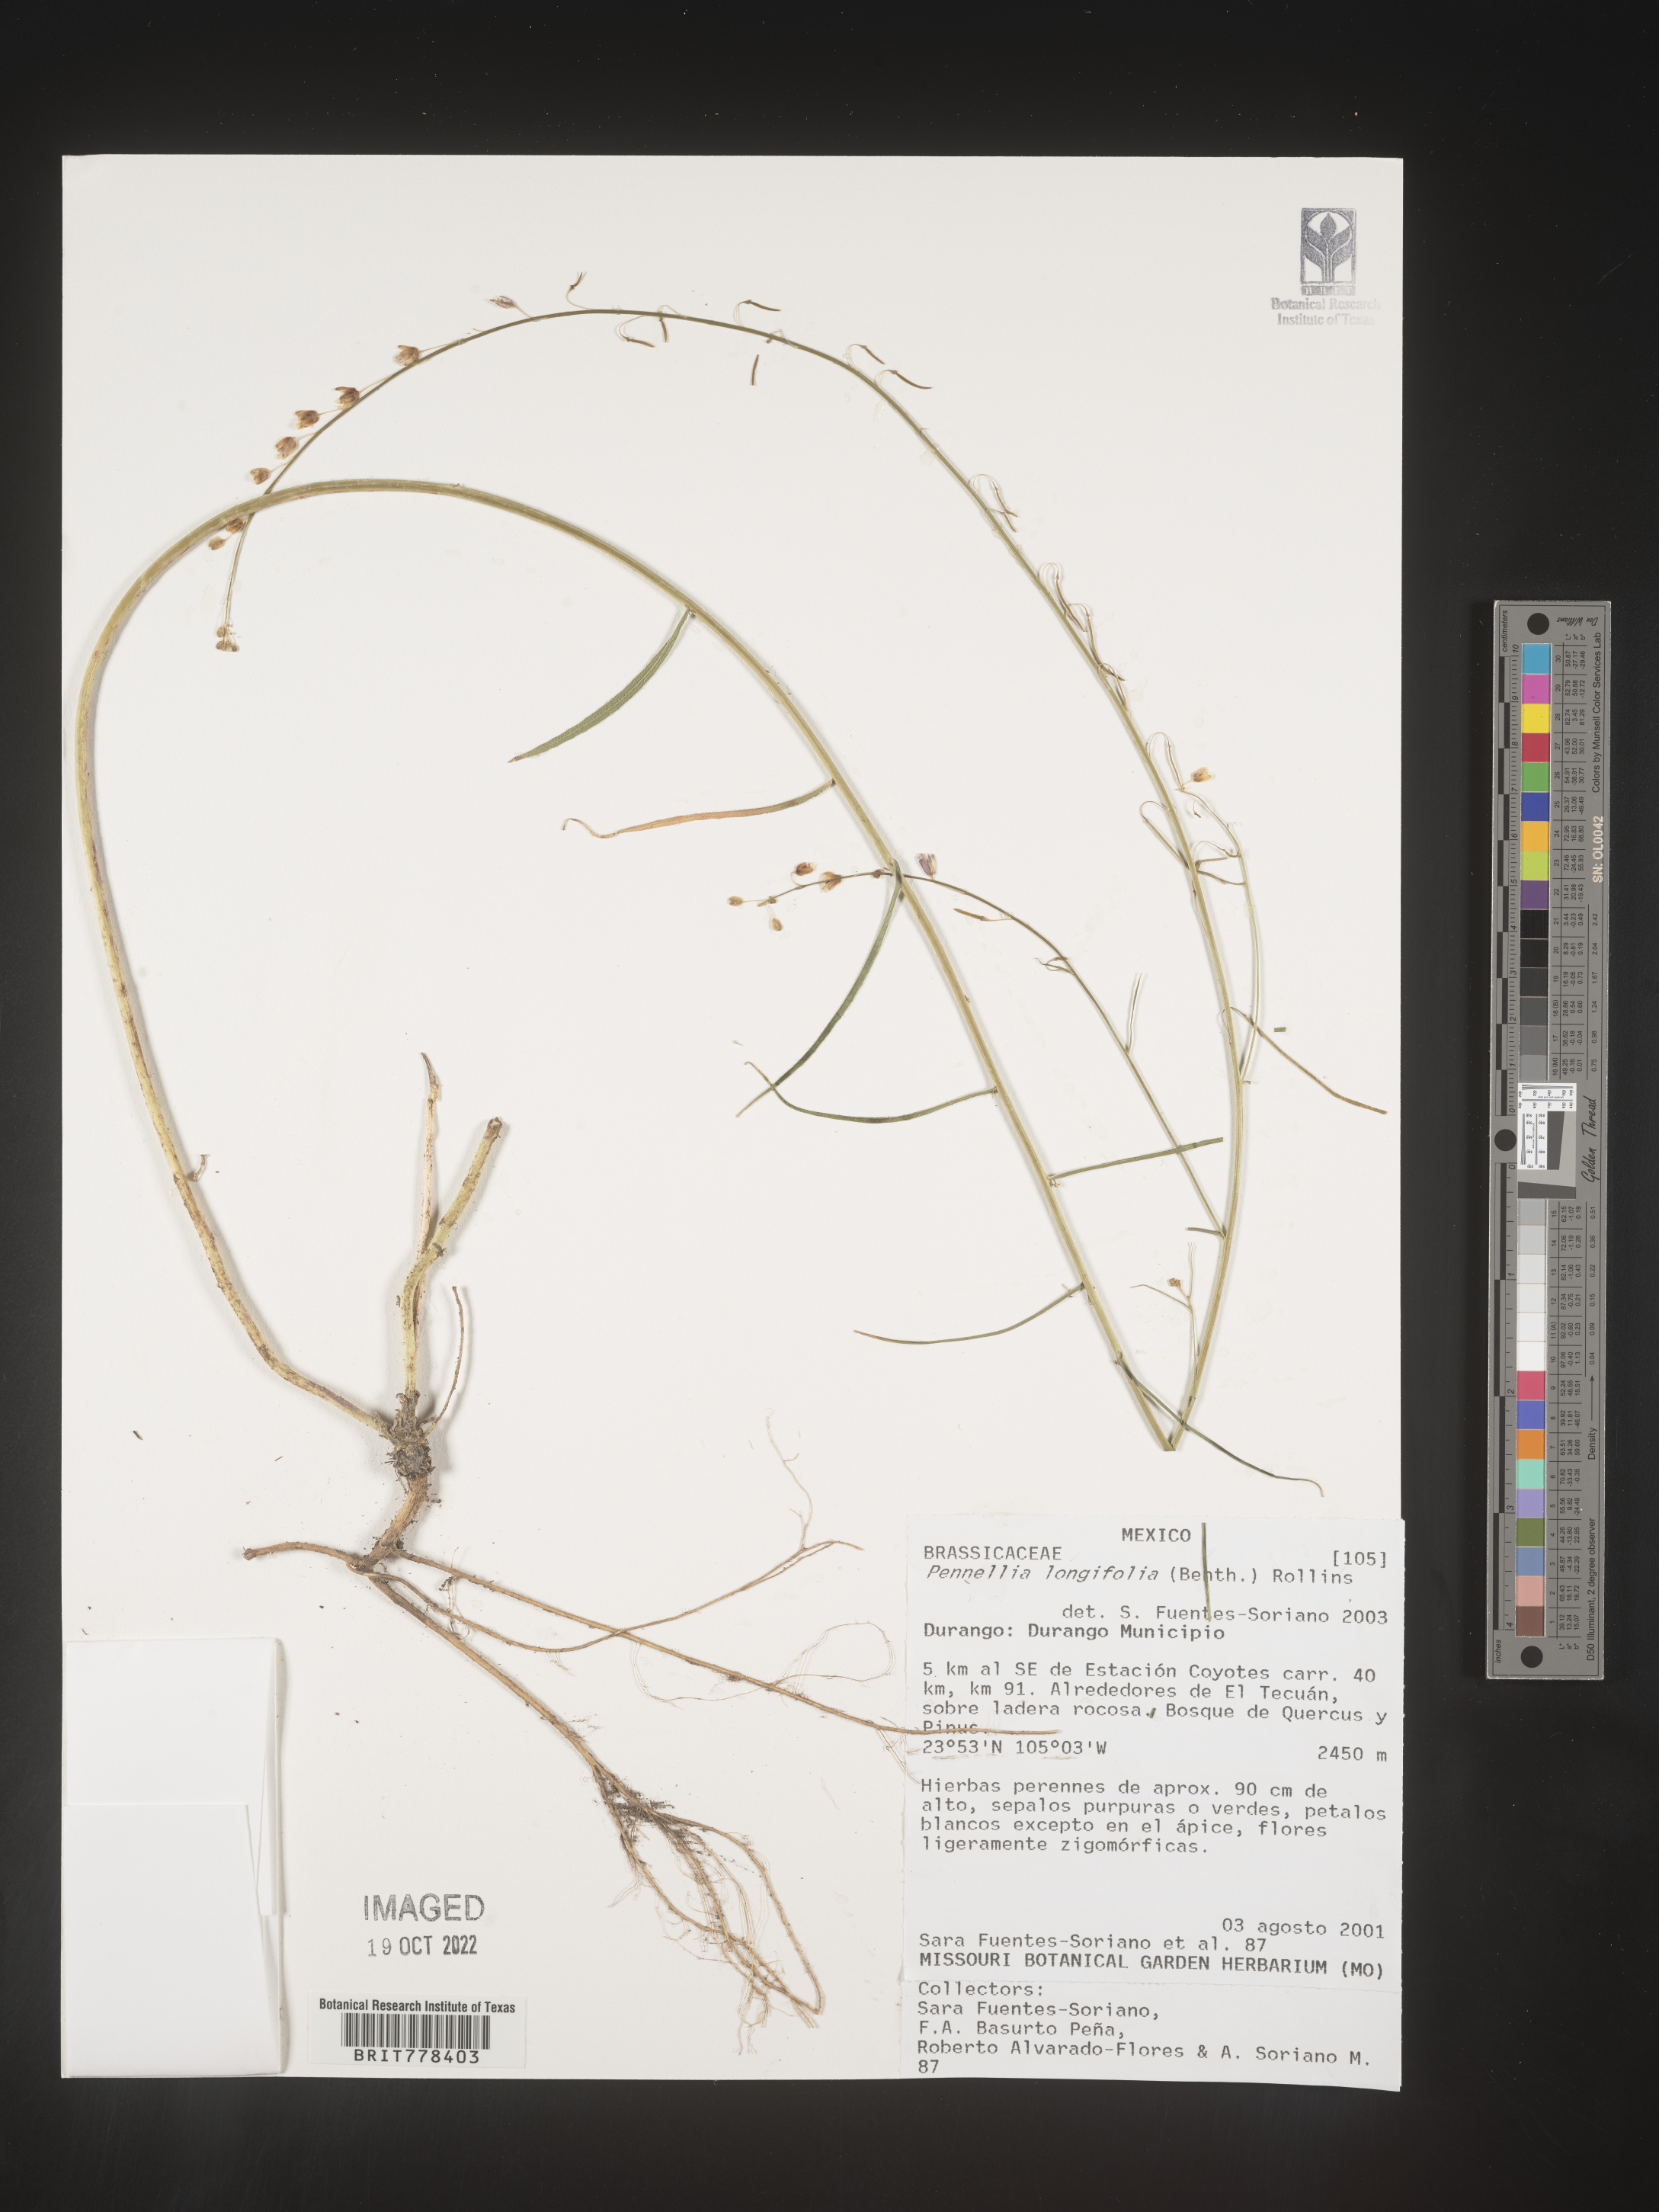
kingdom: Plantae
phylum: Tracheophyta
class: Magnoliopsida
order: Brassicales
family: Brassicaceae
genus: Pennellia
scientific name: Pennellia
